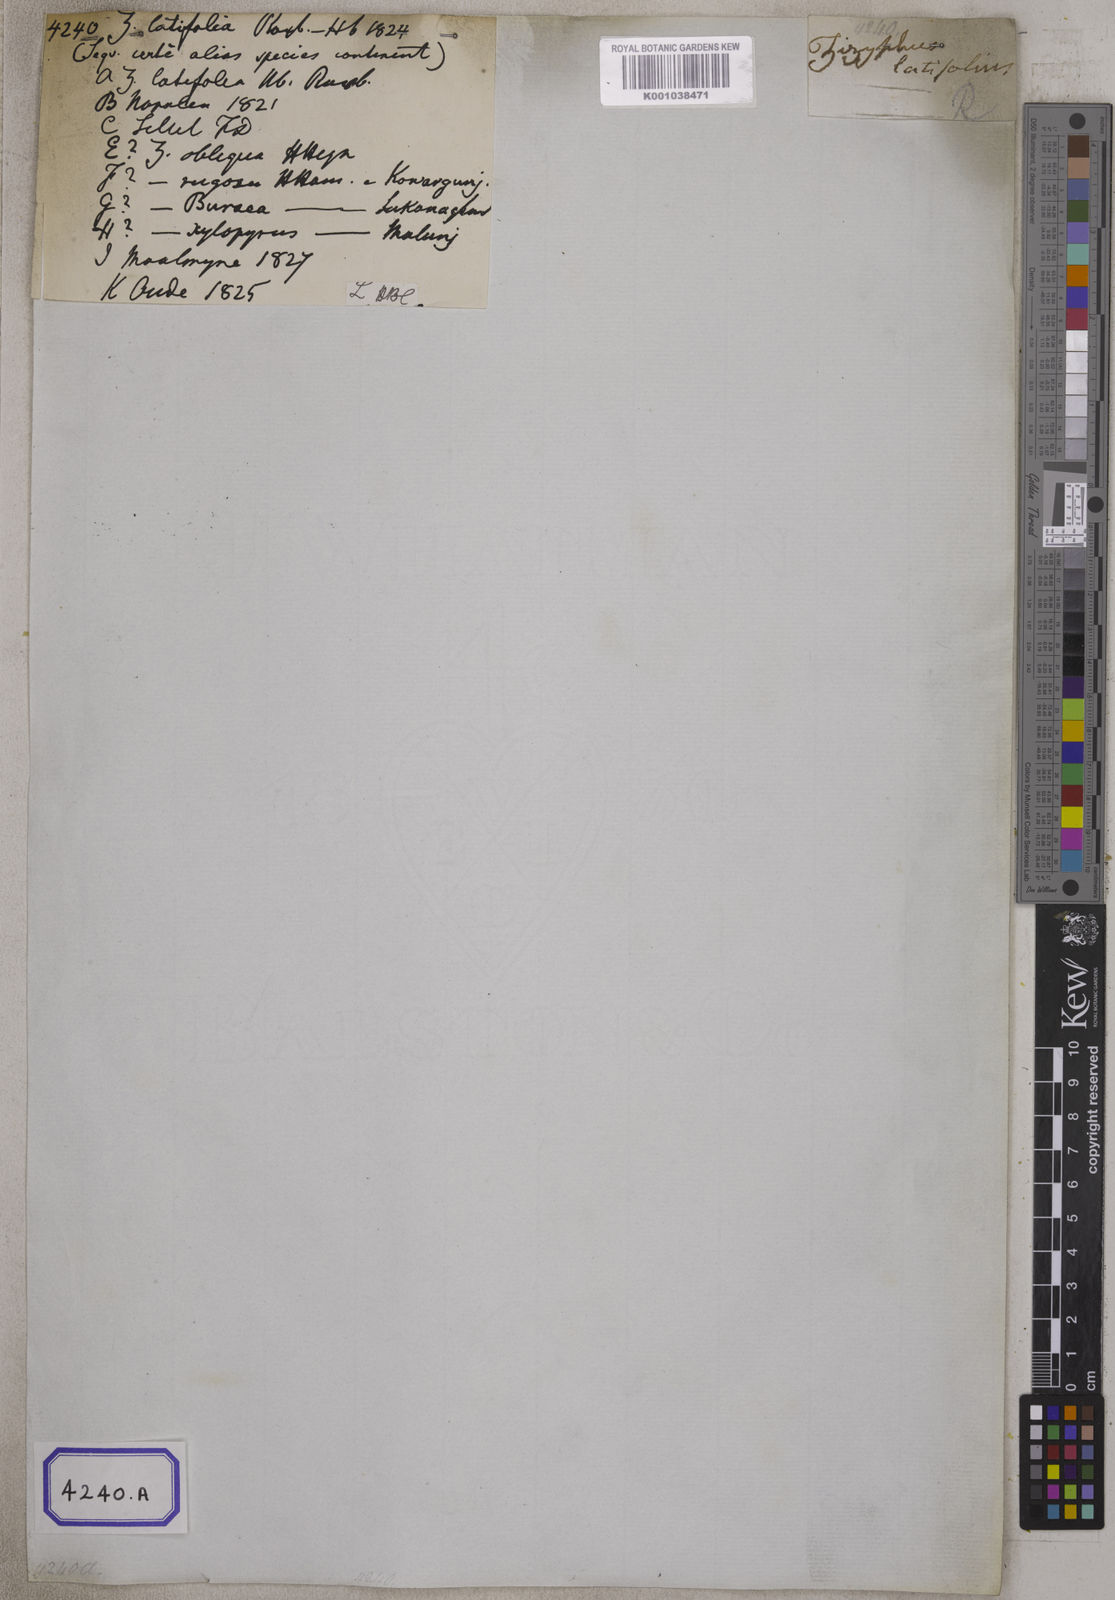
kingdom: Plantae
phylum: Tracheophyta
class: Magnoliopsida
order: Rosales
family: Rhamnaceae
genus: Ziziphus
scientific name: Ziziphus rugosa
